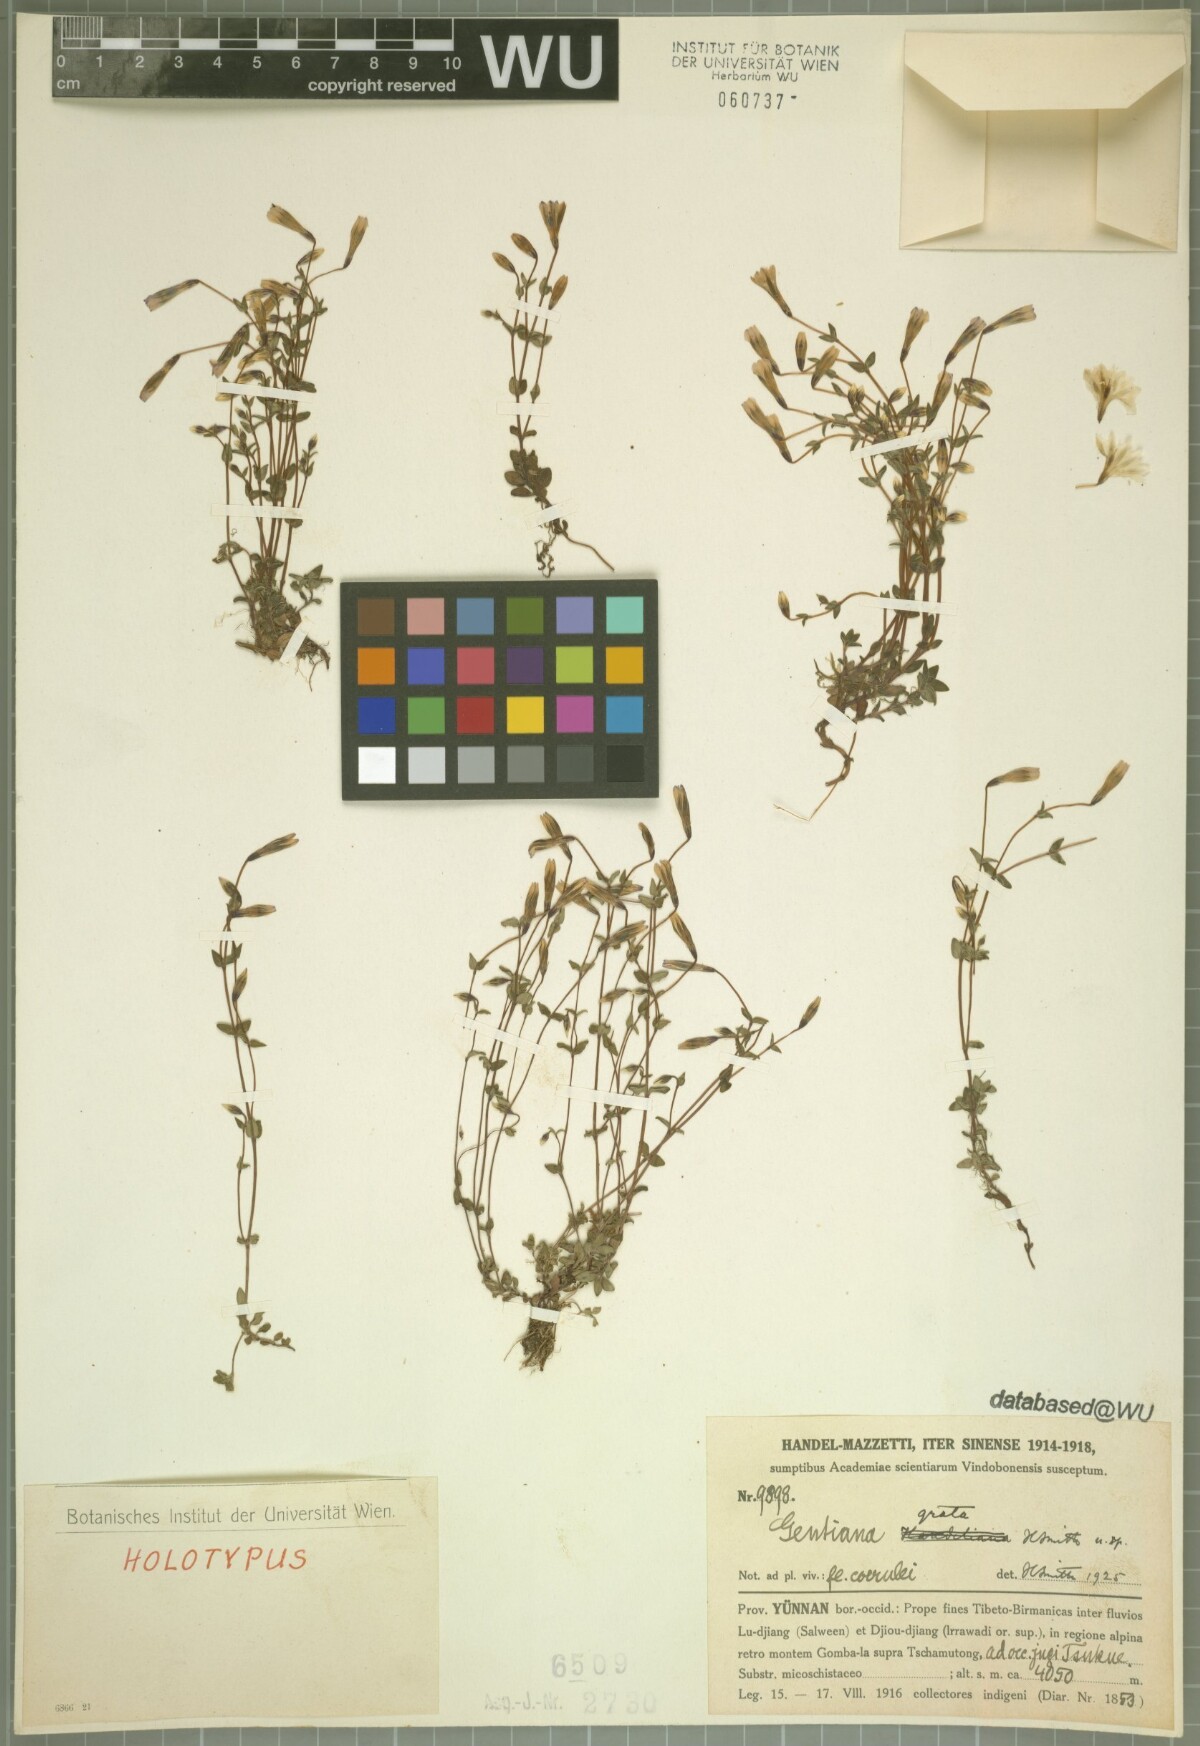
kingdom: Plantae
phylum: Tracheophyta
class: Magnoliopsida
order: Gentianales
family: Gentianaceae
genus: Gentiana
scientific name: Gentiana grata
